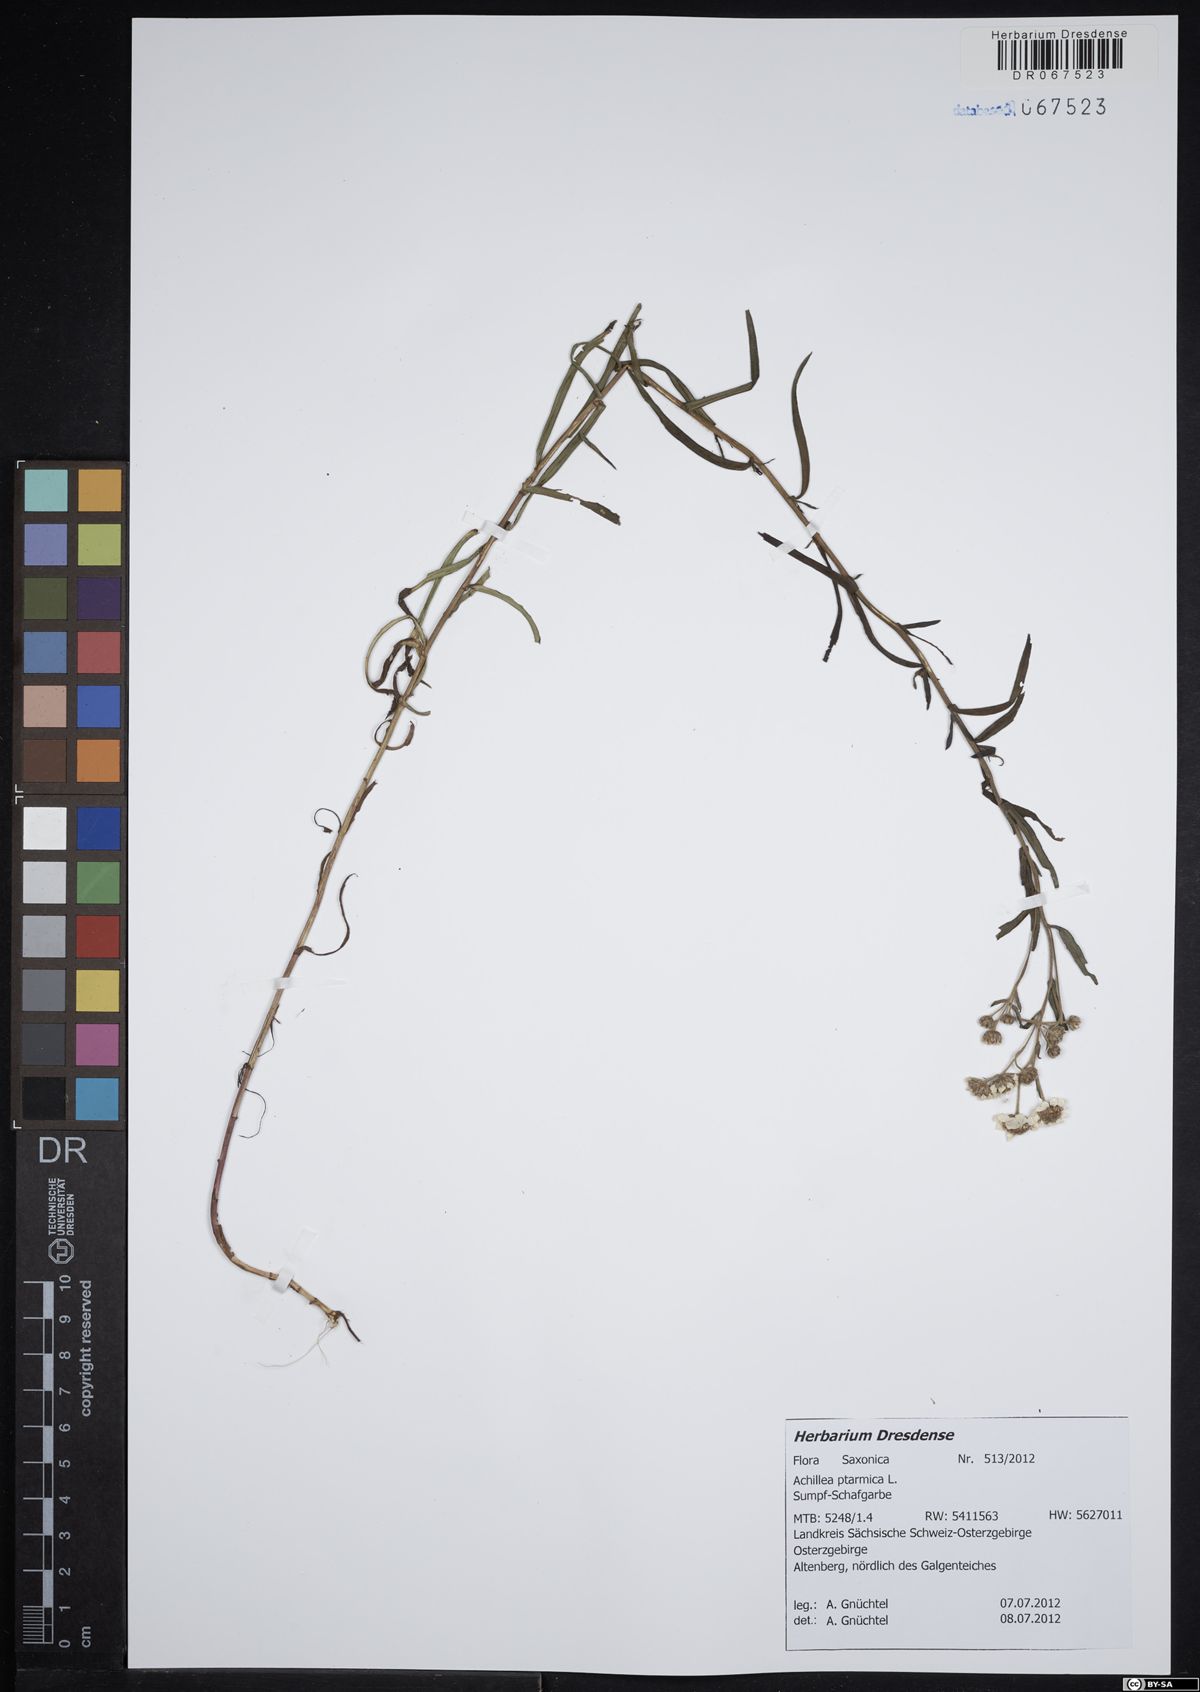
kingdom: Plantae
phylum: Tracheophyta
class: Magnoliopsida
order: Asterales
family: Asteraceae
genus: Achillea
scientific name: Achillea ptarmica
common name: Sneezeweed
